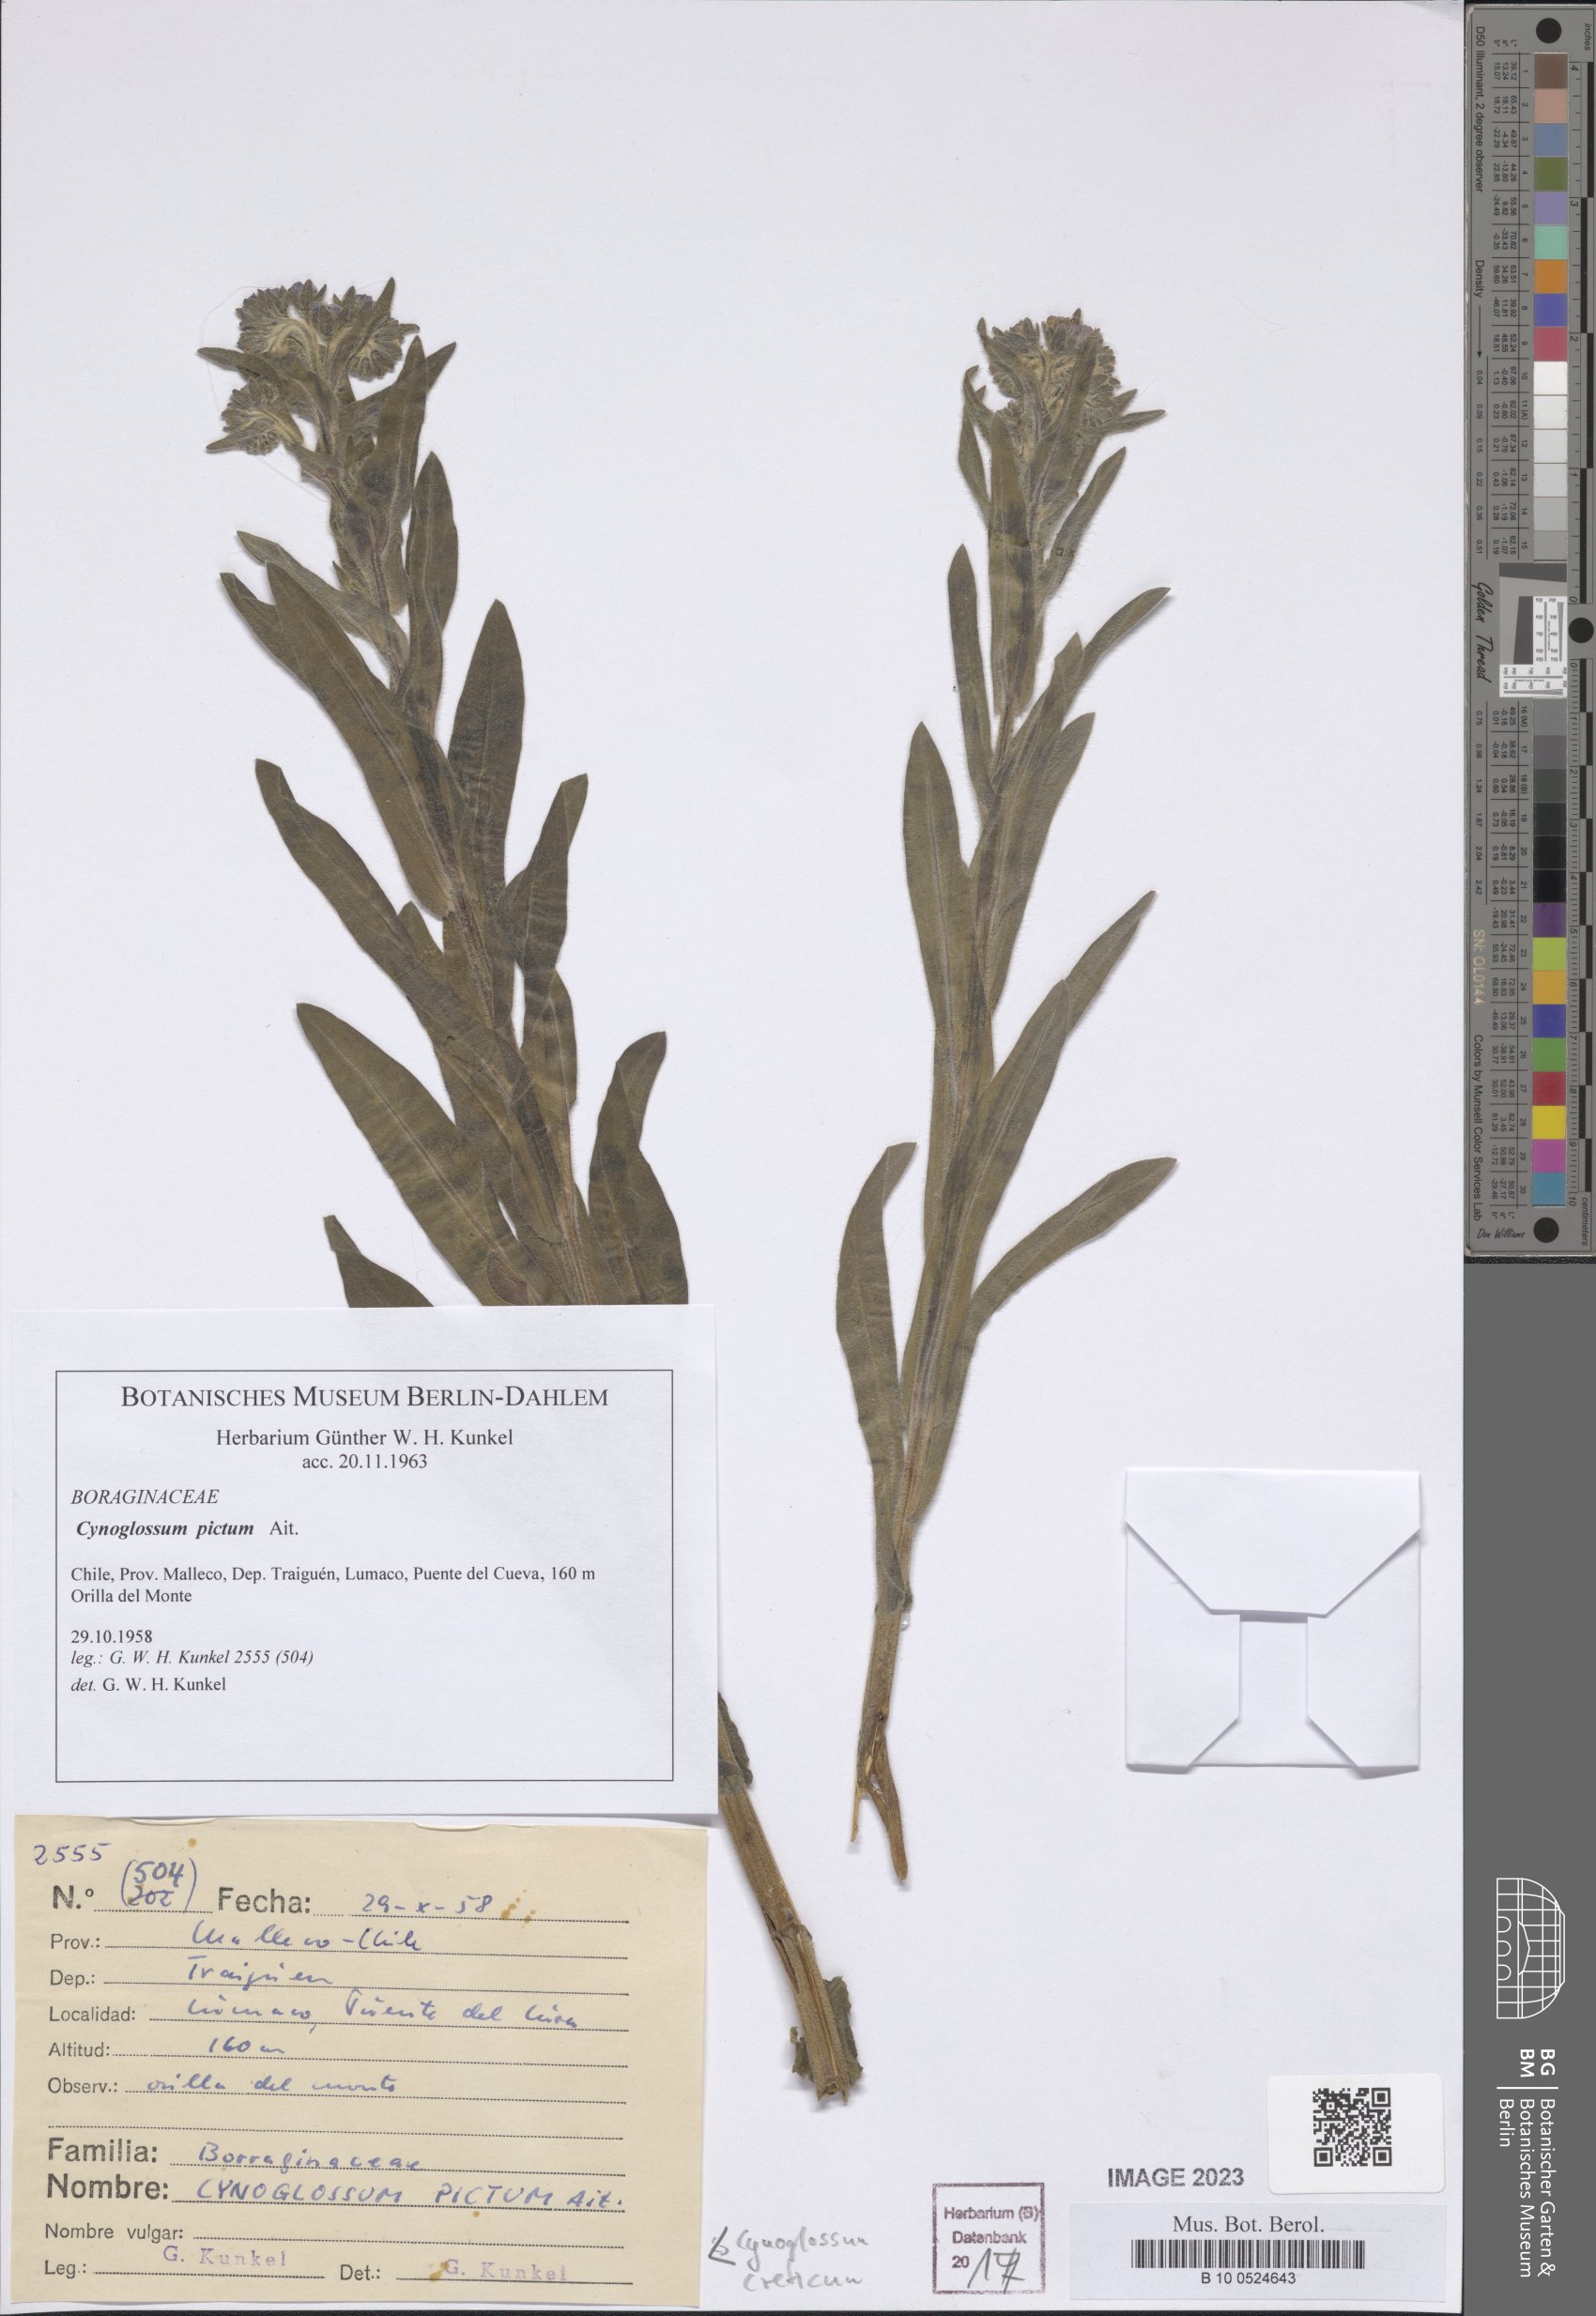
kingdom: Plantae
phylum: Tracheophyta
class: Magnoliopsida
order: Boraginales
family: Boraginaceae
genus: Cynoglossum
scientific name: Cynoglossum creticum
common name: Blue hound's tongue
